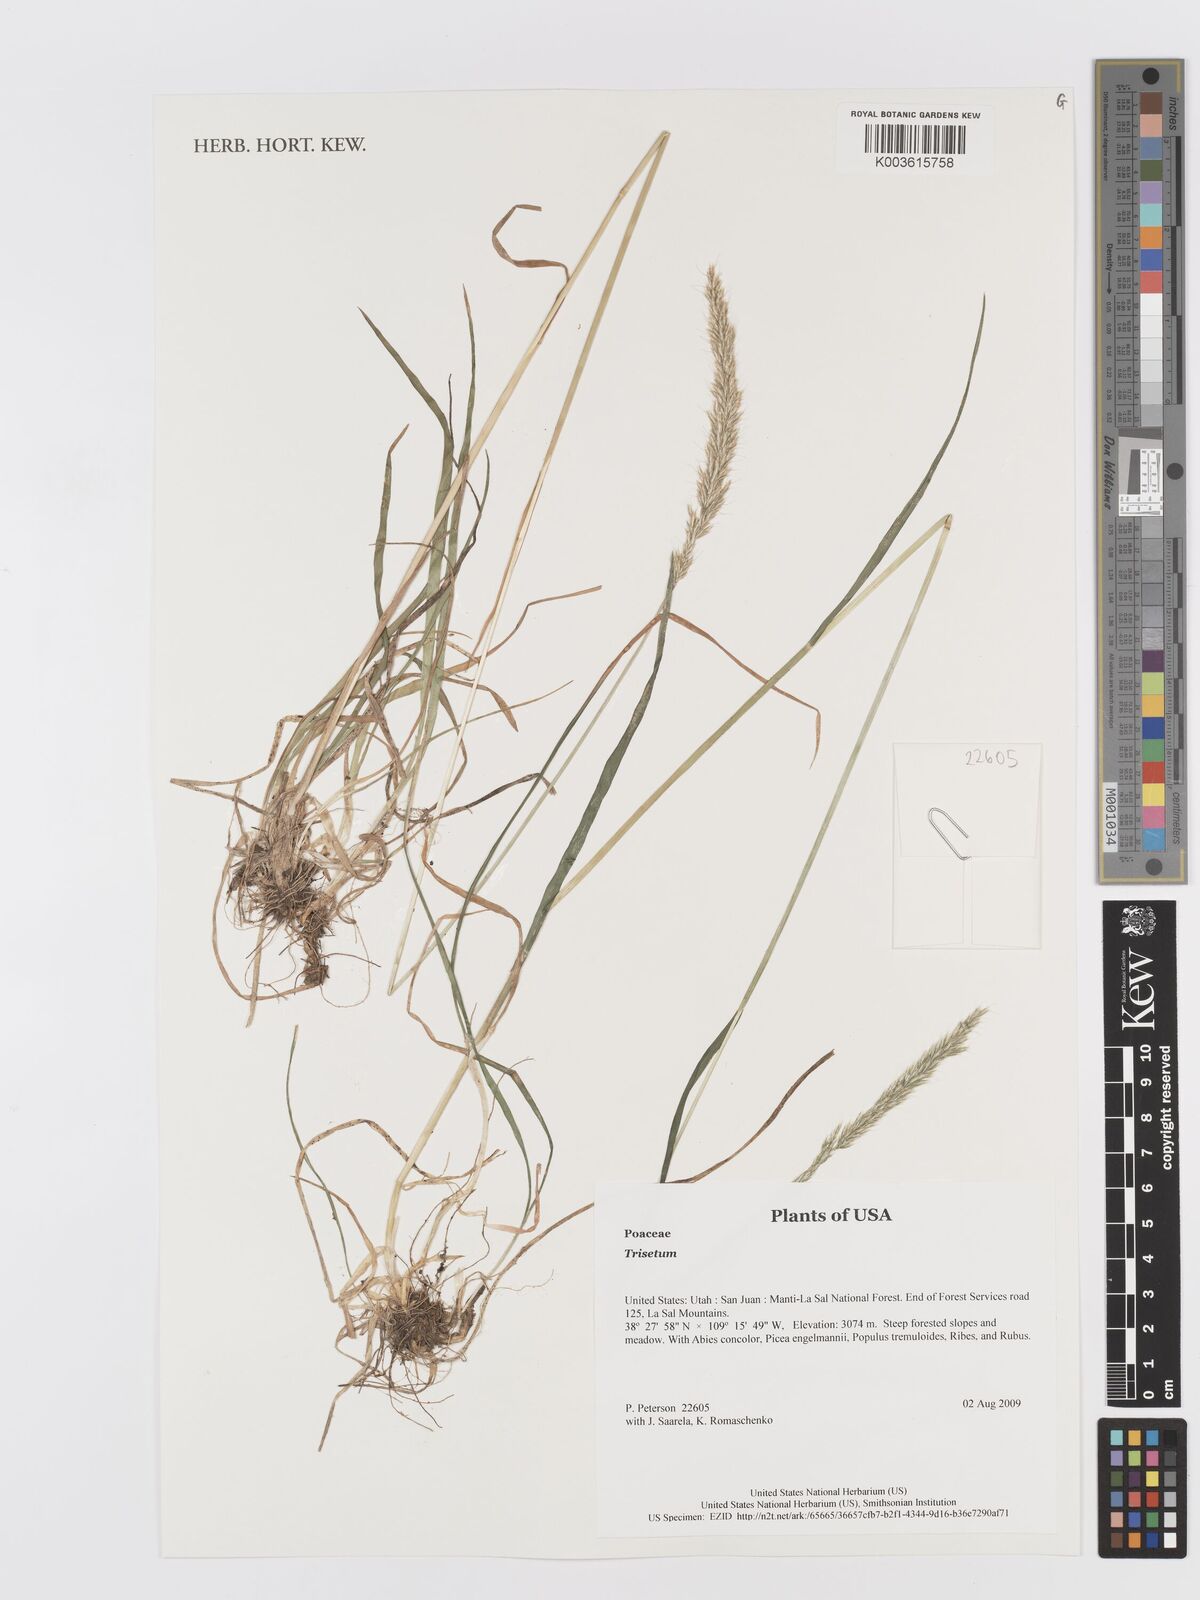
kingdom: Plantae
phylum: Tracheophyta
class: Liliopsida
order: Poales
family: Poaceae
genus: Trisetum
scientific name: Trisetum
